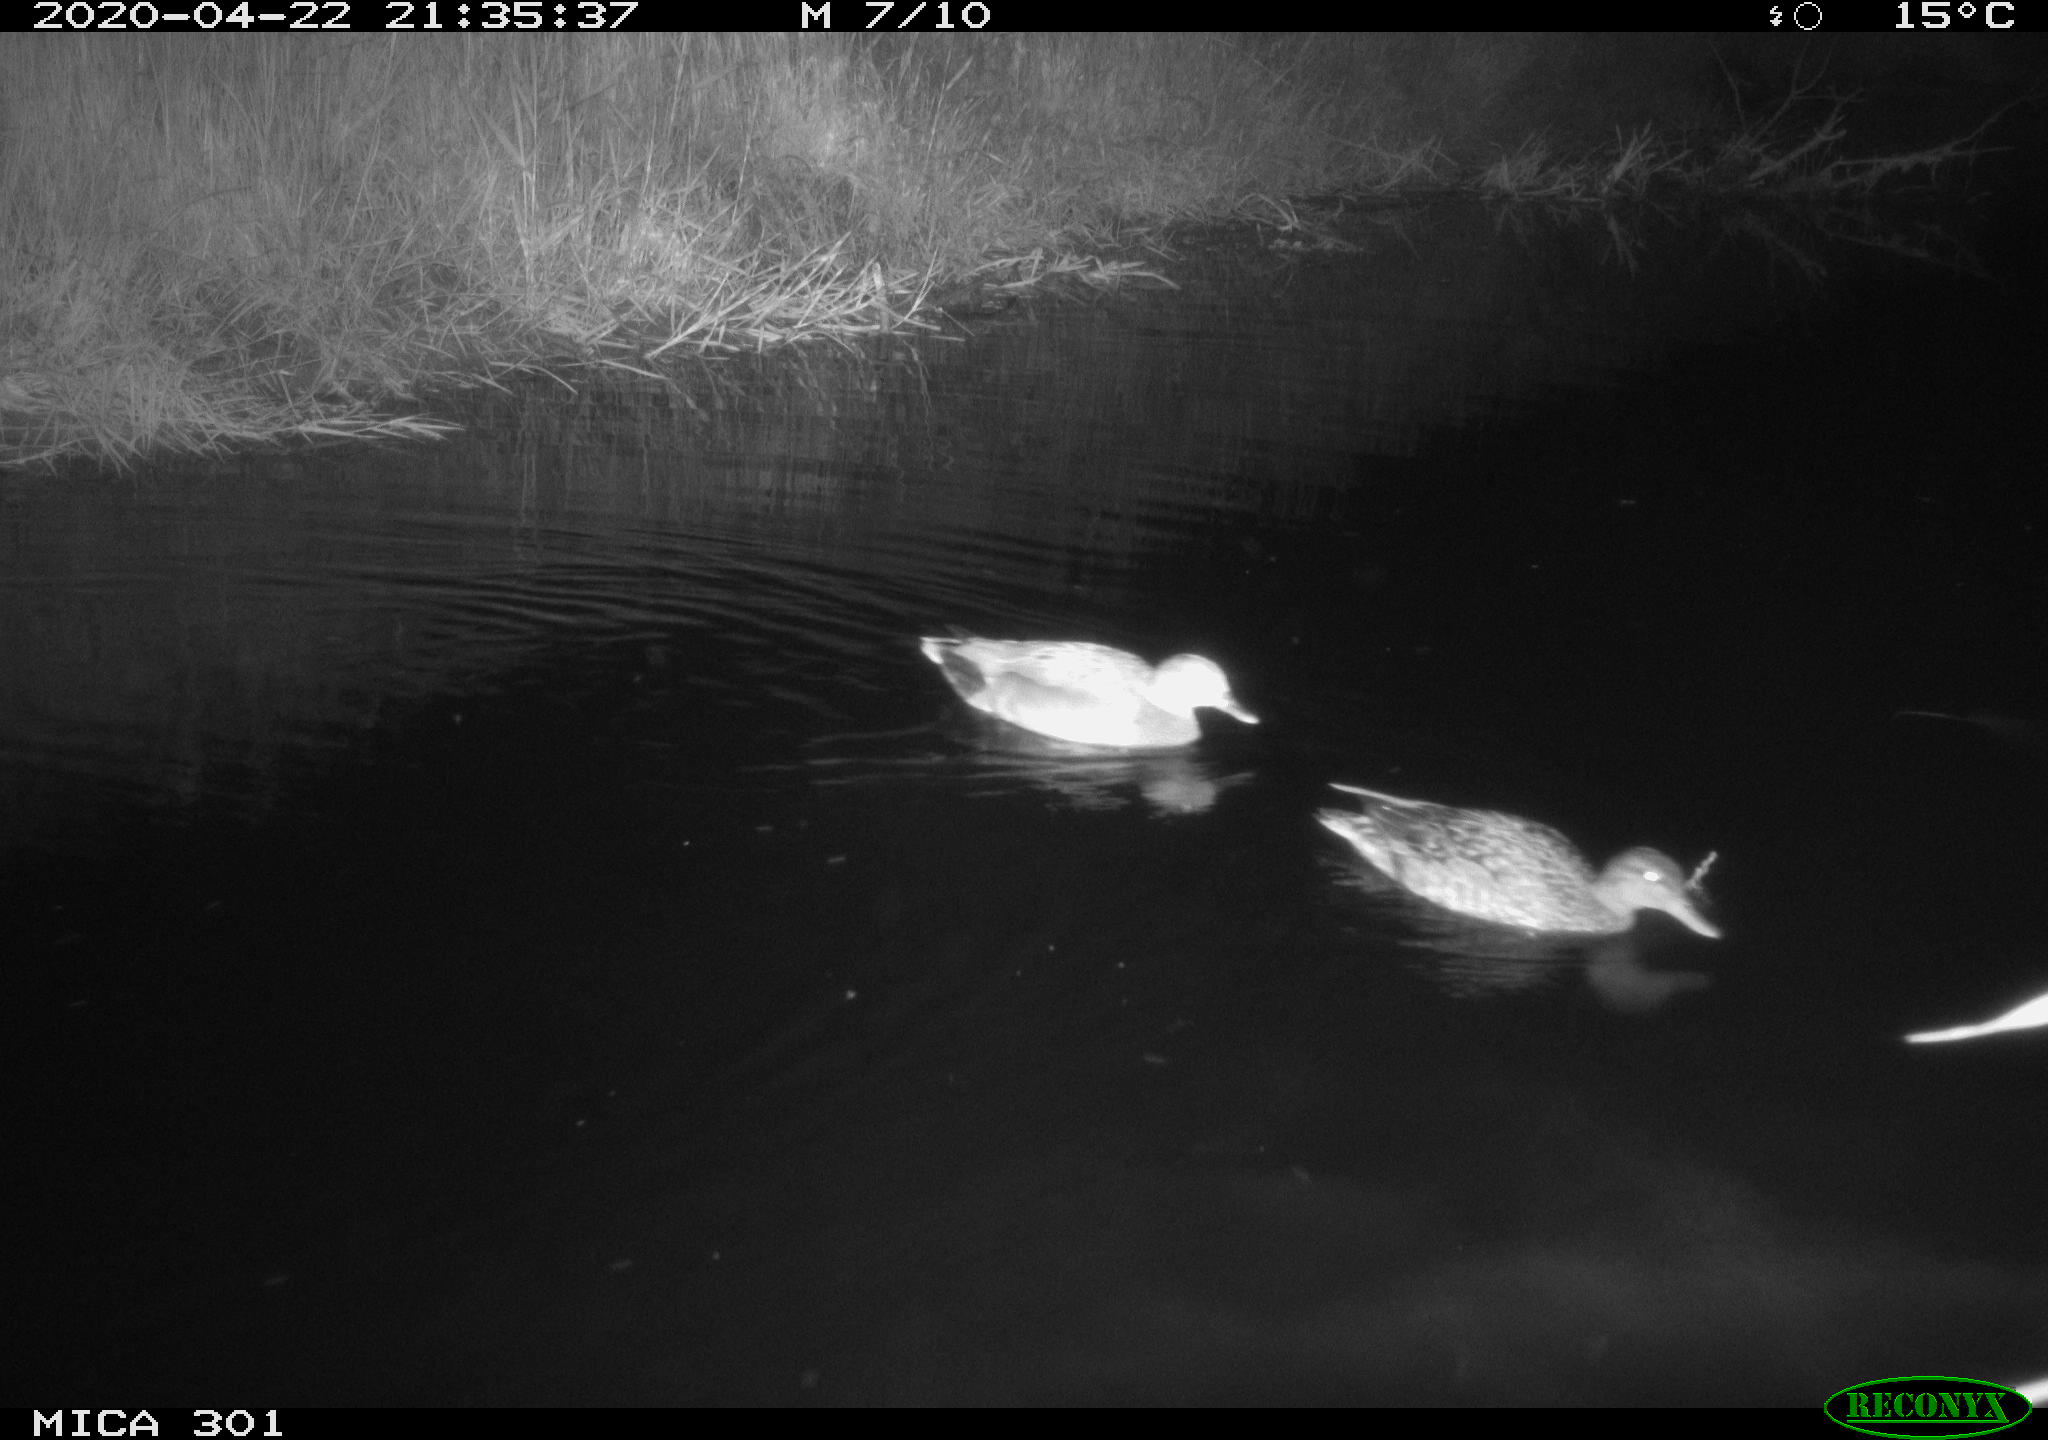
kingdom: Animalia
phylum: Chordata
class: Aves
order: Anseriformes
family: Anatidae
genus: Mareca
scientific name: Mareca strepera
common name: Gadwall
